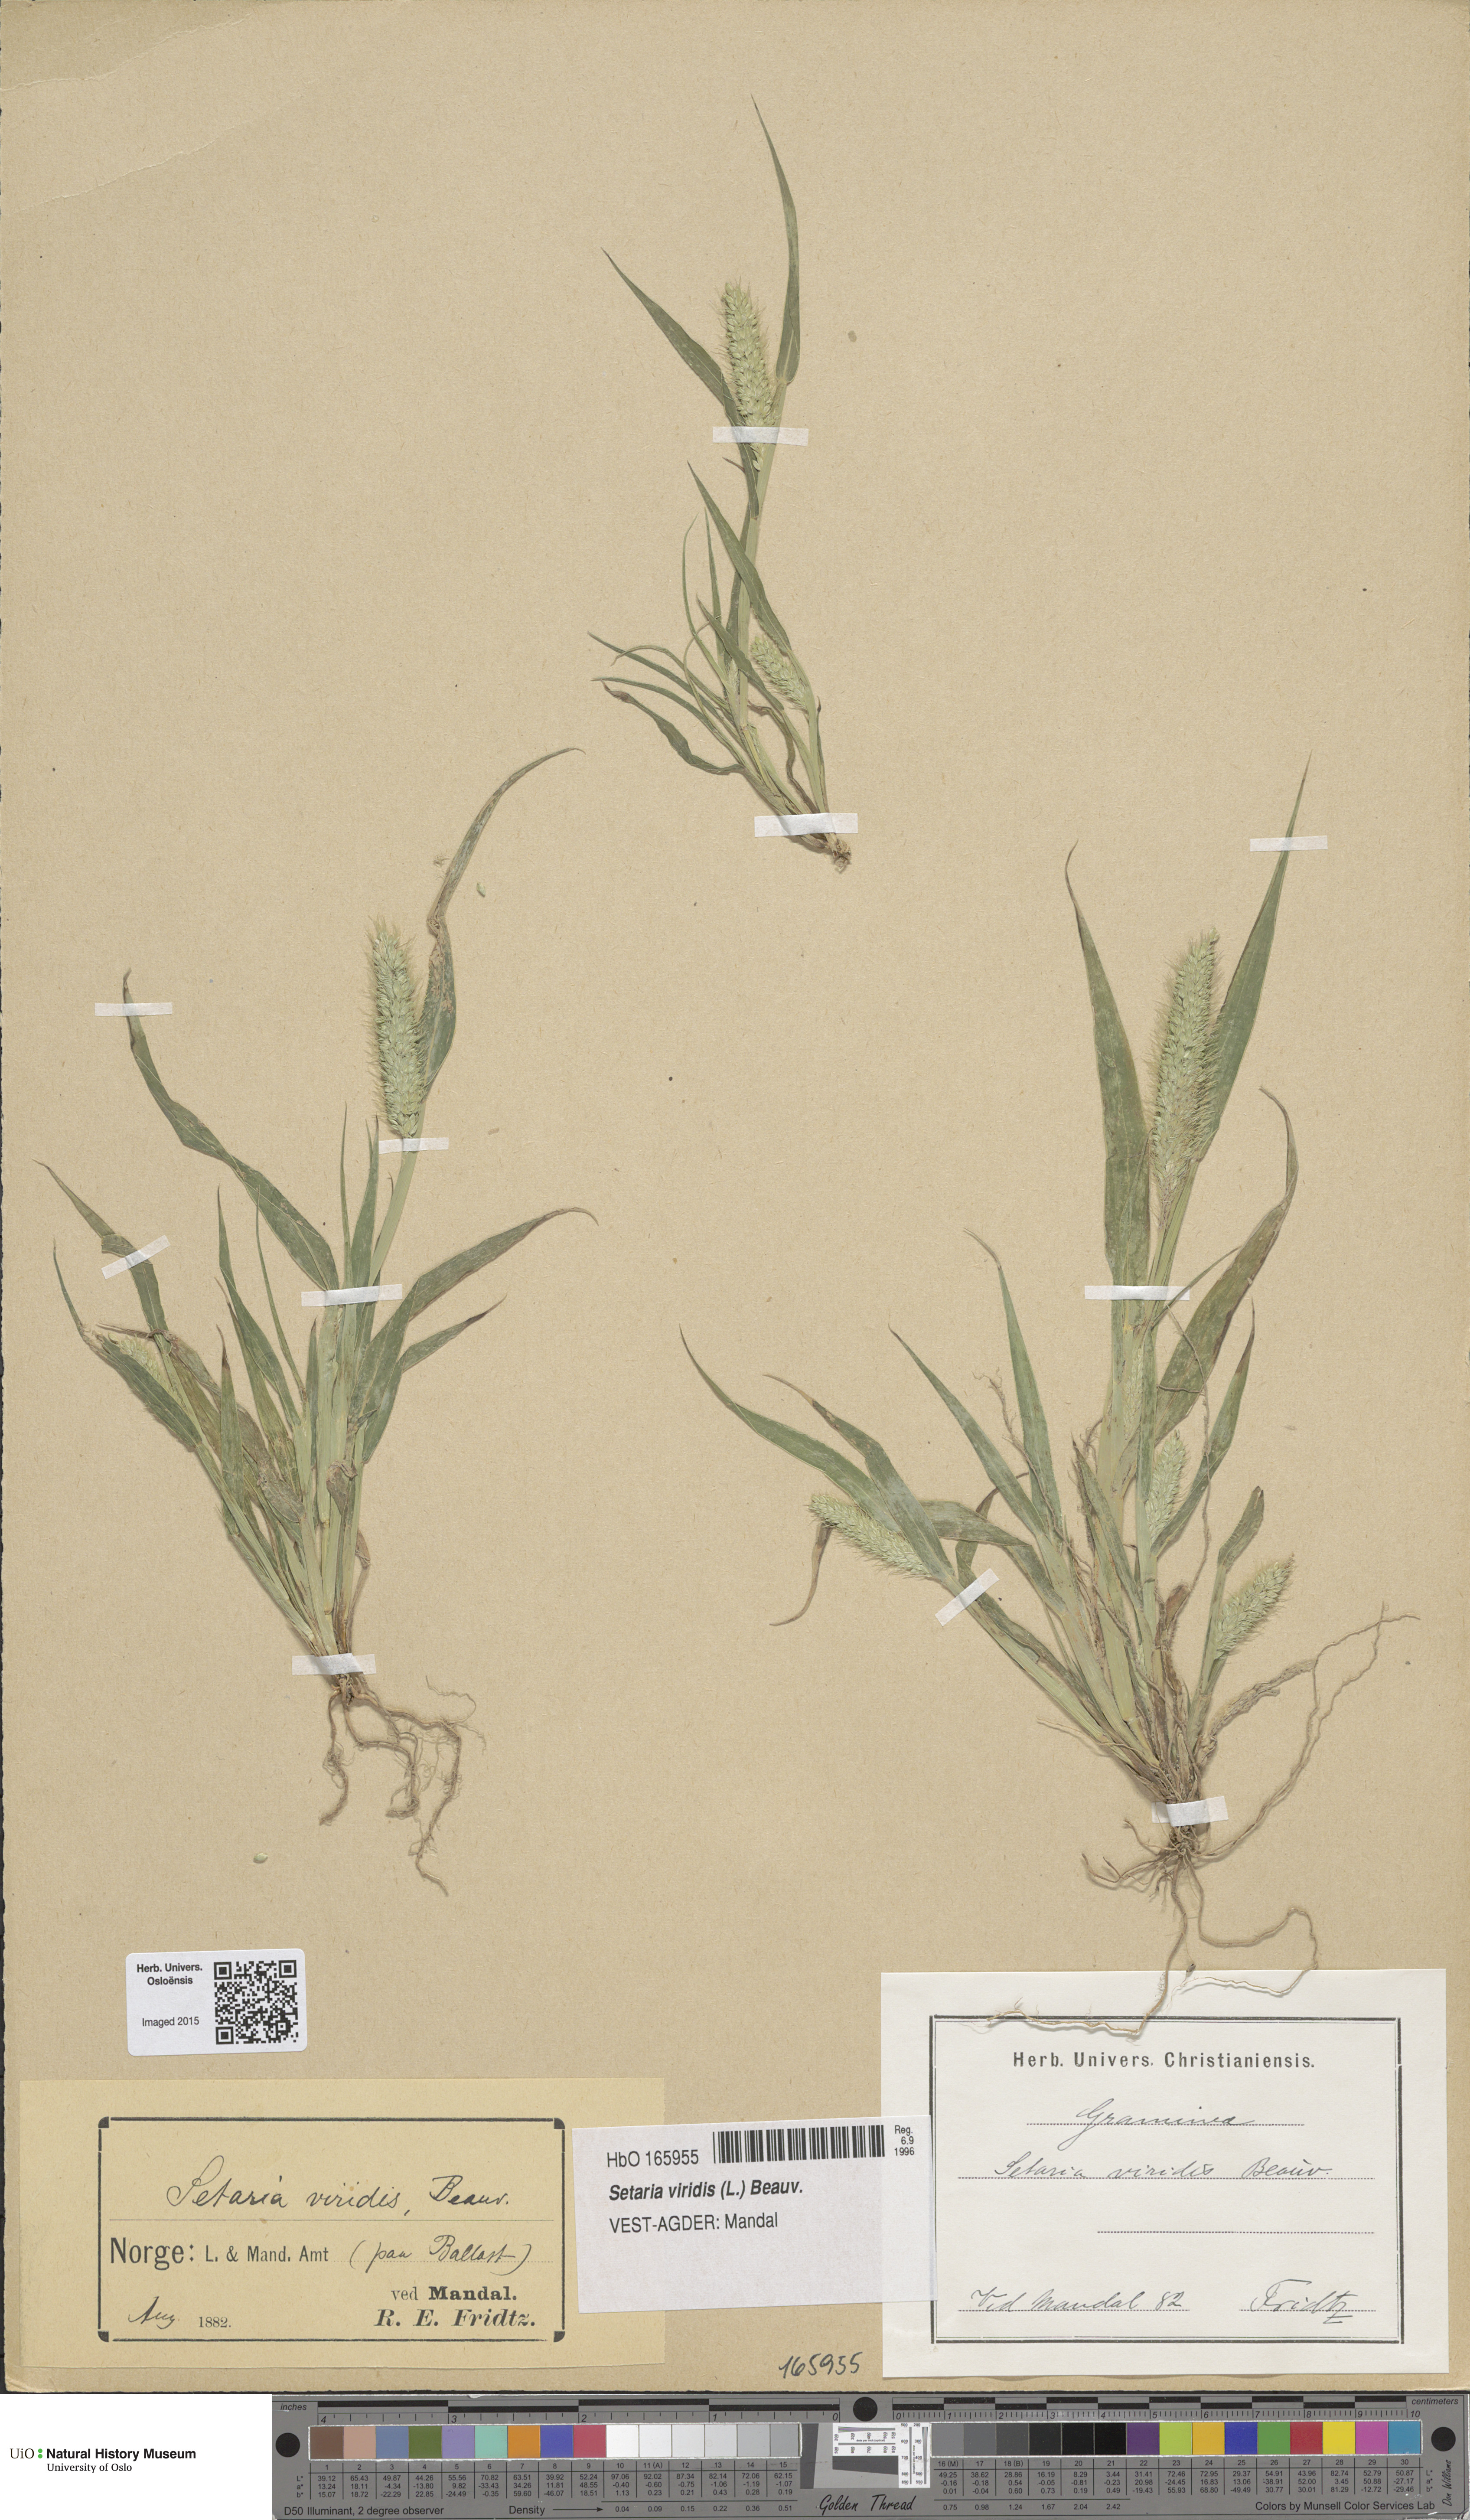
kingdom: Plantae
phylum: Tracheophyta
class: Liliopsida
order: Poales
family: Poaceae
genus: Setaria
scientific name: Setaria viridis
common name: Green bristlegrass
